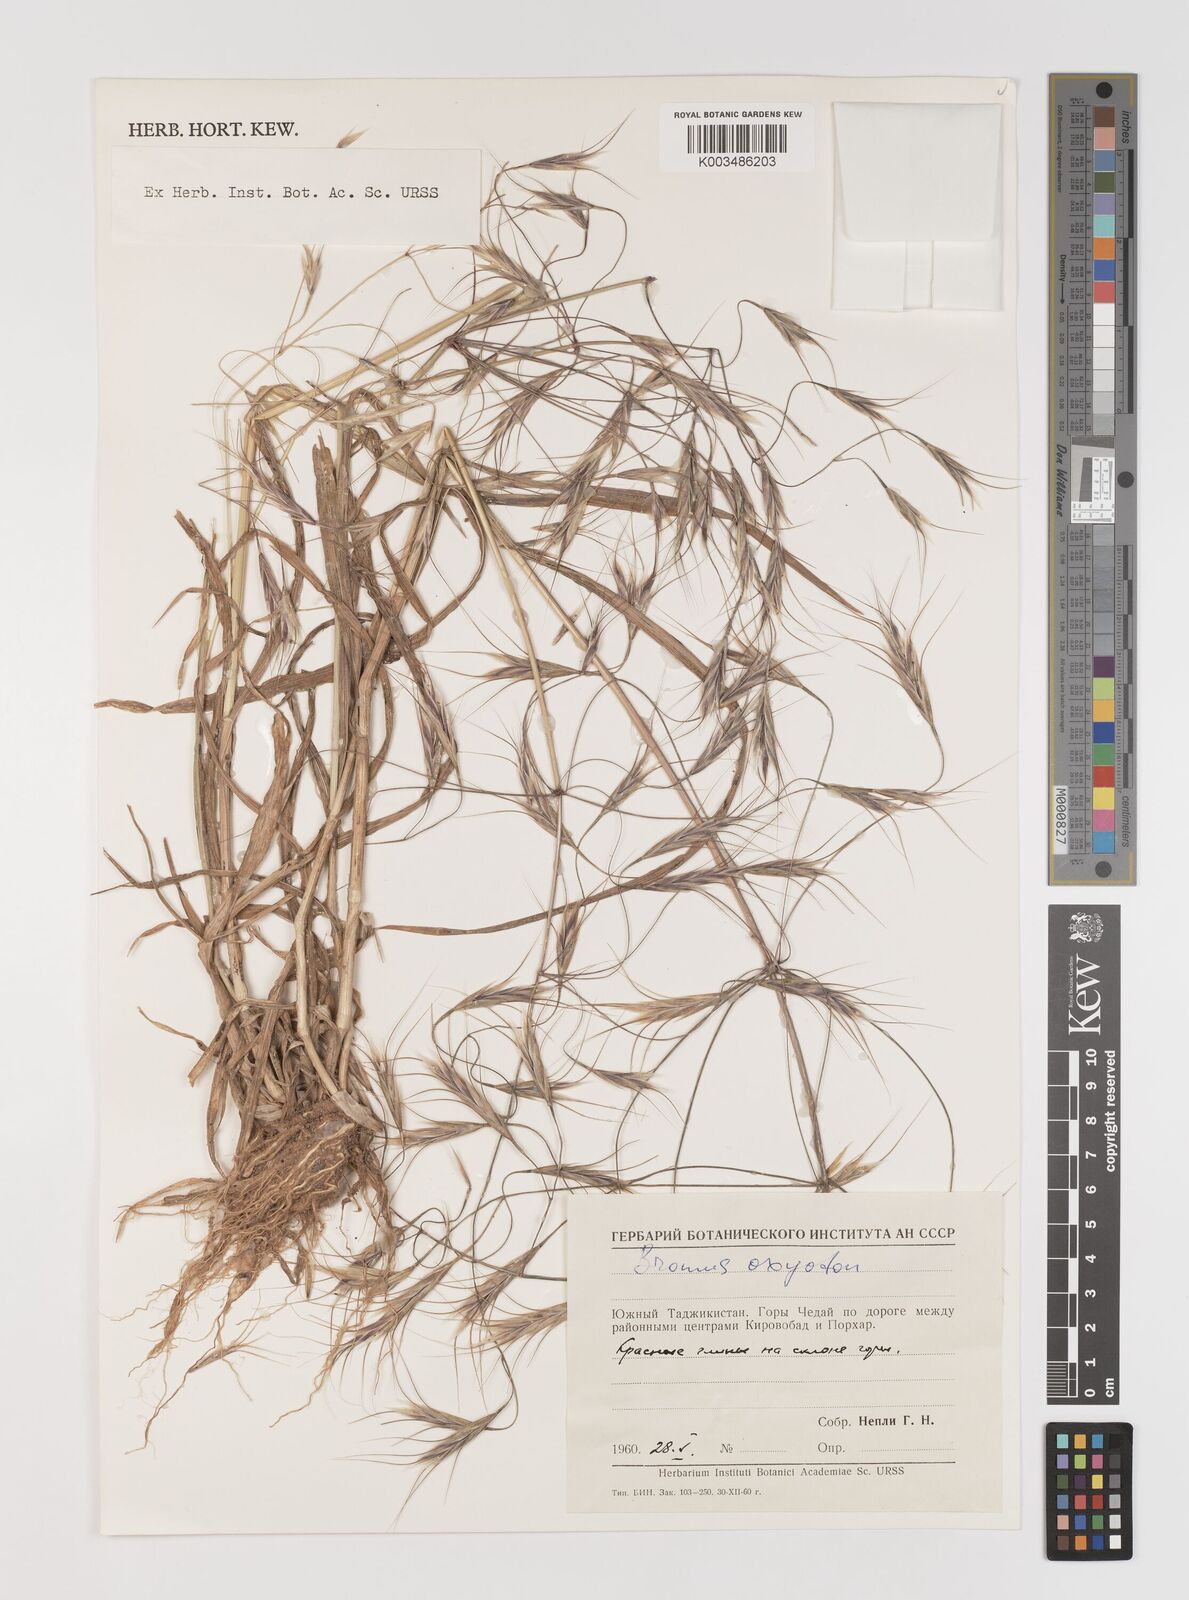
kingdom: Plantae
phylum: Tracheophyta
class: Liliopsida
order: Poales
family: Poaceae
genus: Bromus
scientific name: Bromus oxyodon
